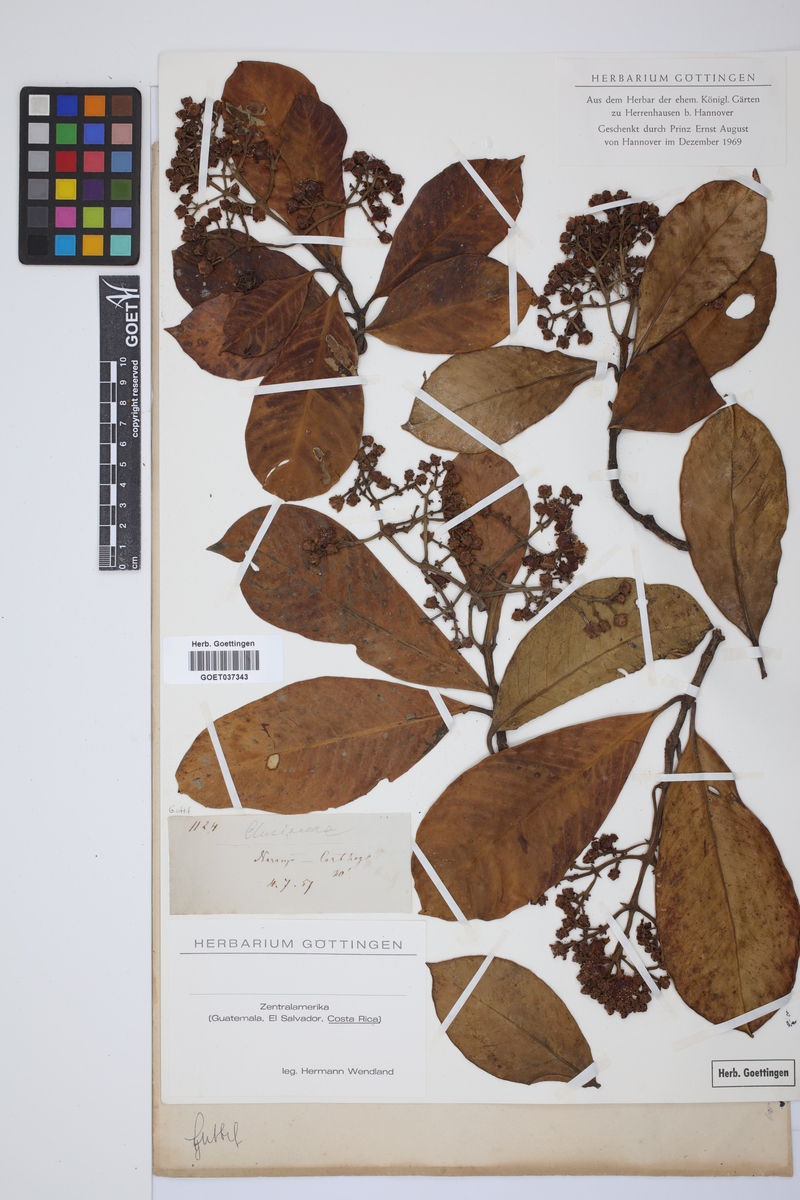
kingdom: Plantae
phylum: Tracheophyta
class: Magnoliopsida
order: Malpighiales
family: Hypericaceae
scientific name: Hypericaceae
